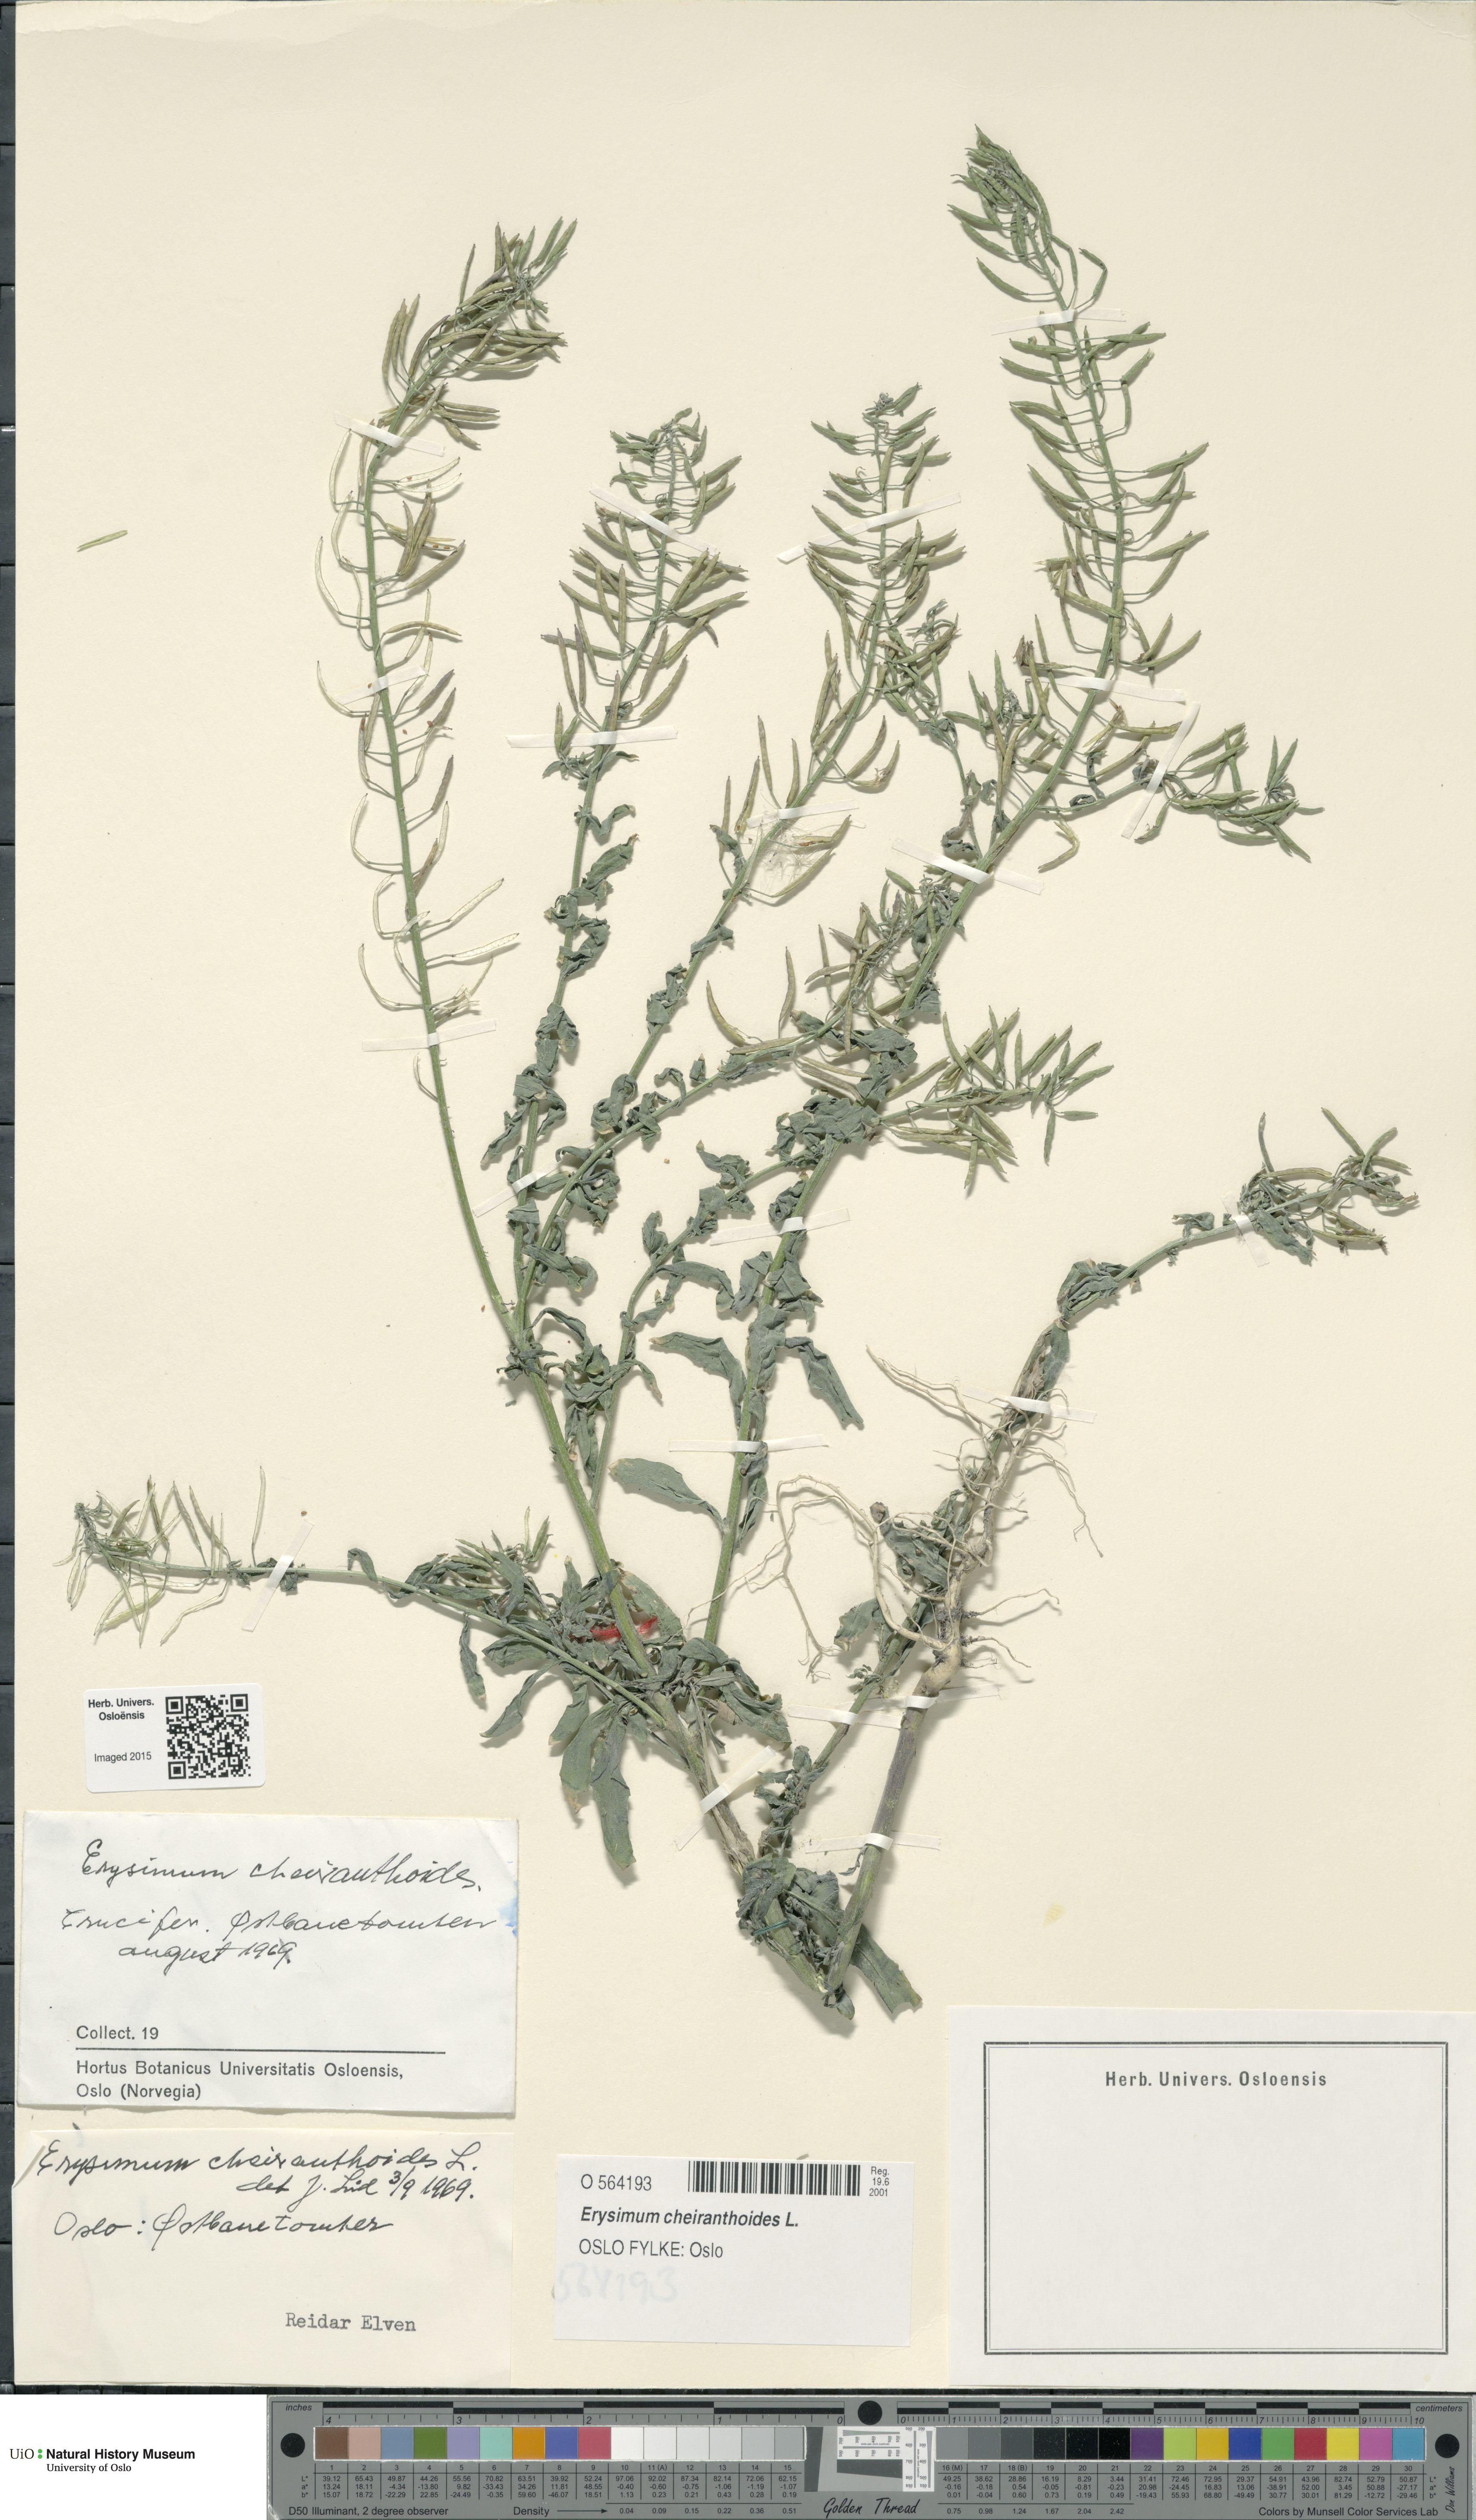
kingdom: Plantae
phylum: Tracheophyta
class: Magnoliopsida
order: Brassicales
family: Brassicaceae
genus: Erysimum
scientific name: Erysimum cheiranthoides
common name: Treacle mustard
